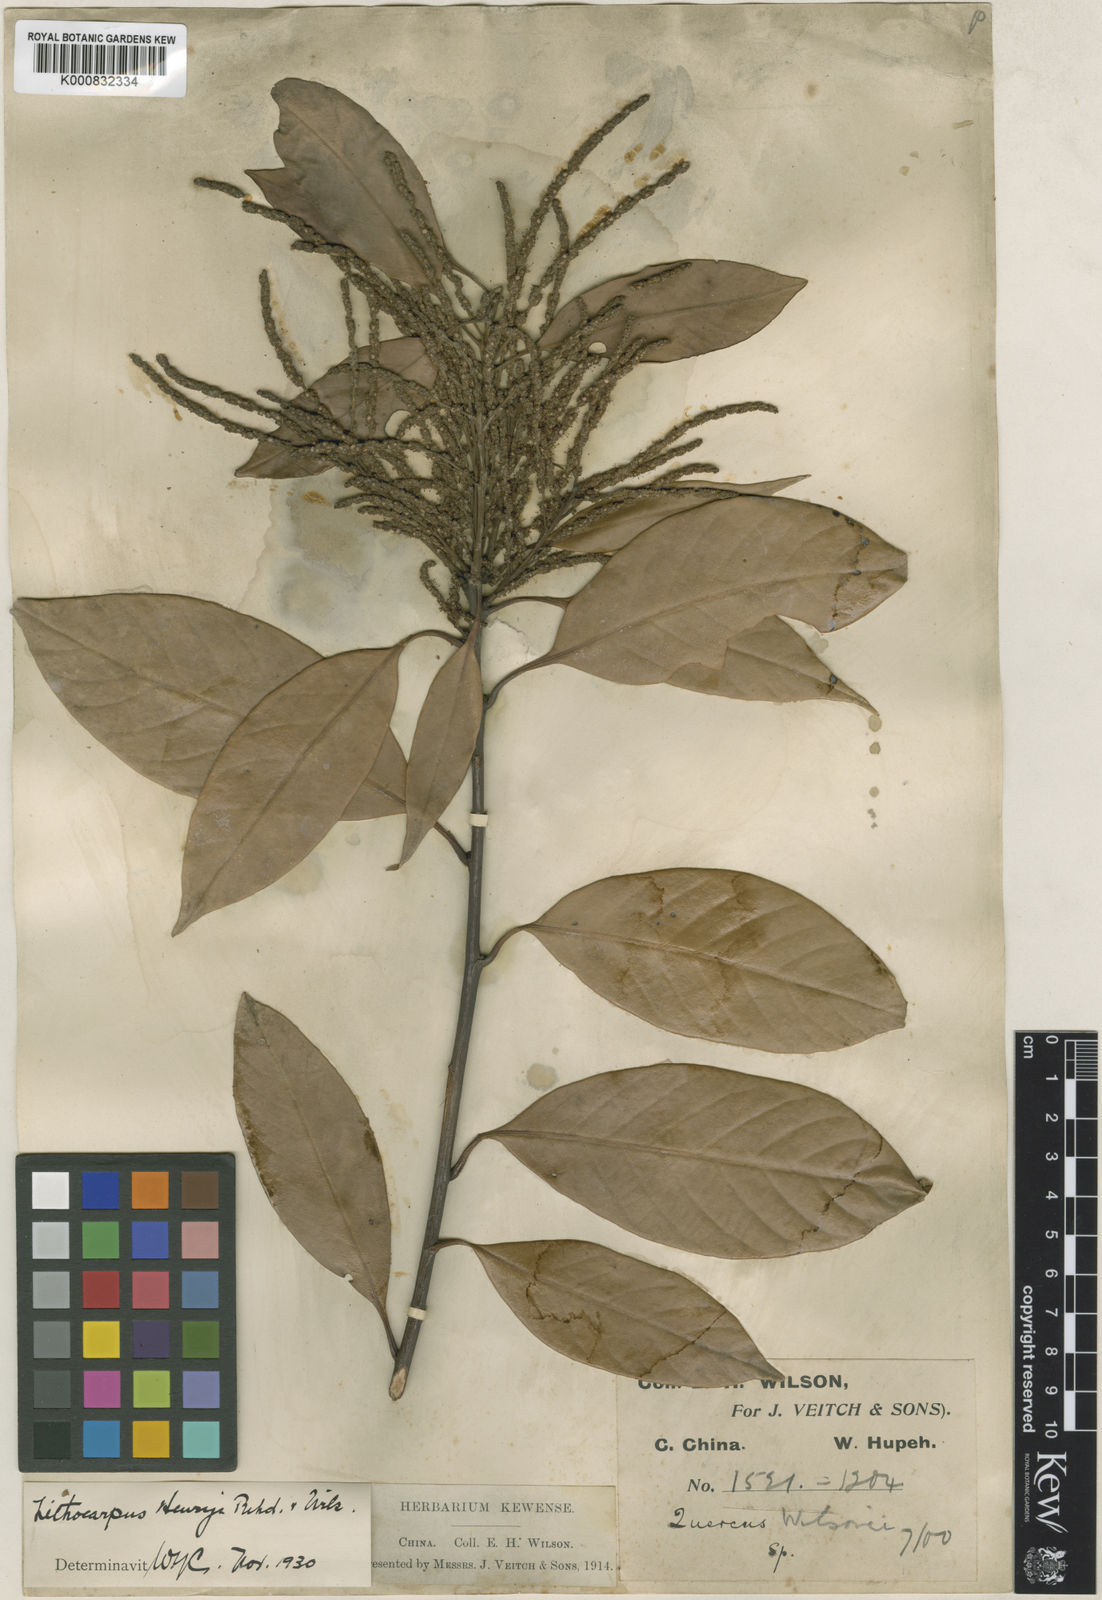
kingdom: Plantae
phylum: Tracheophyta
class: Magnoliopsida
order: Fagales
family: Fagaceae
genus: Lithocarpus
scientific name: Lithocarpus cleistocarpus
